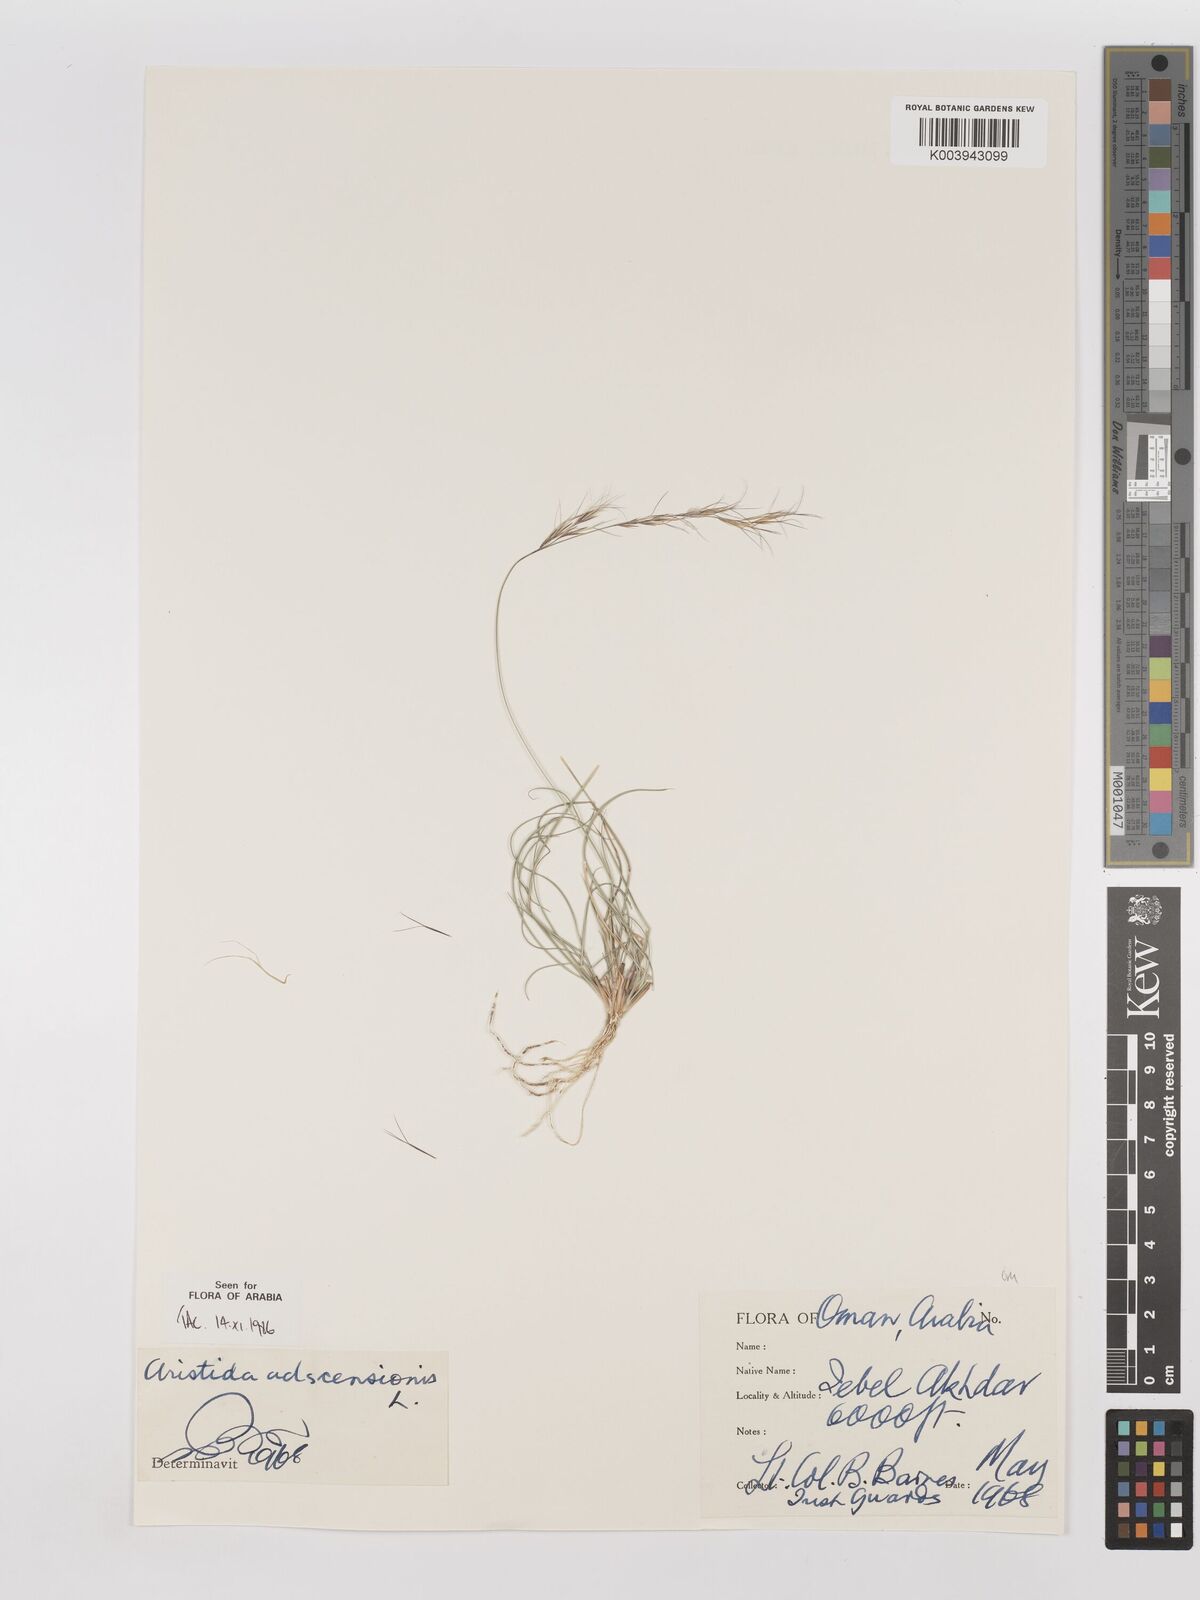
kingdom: Plantae
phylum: Tracheophyta
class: Liliopsida
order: Poales
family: Poaceae
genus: Aristida
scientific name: Aristida adscensionis
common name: Sixweeks threeawn
